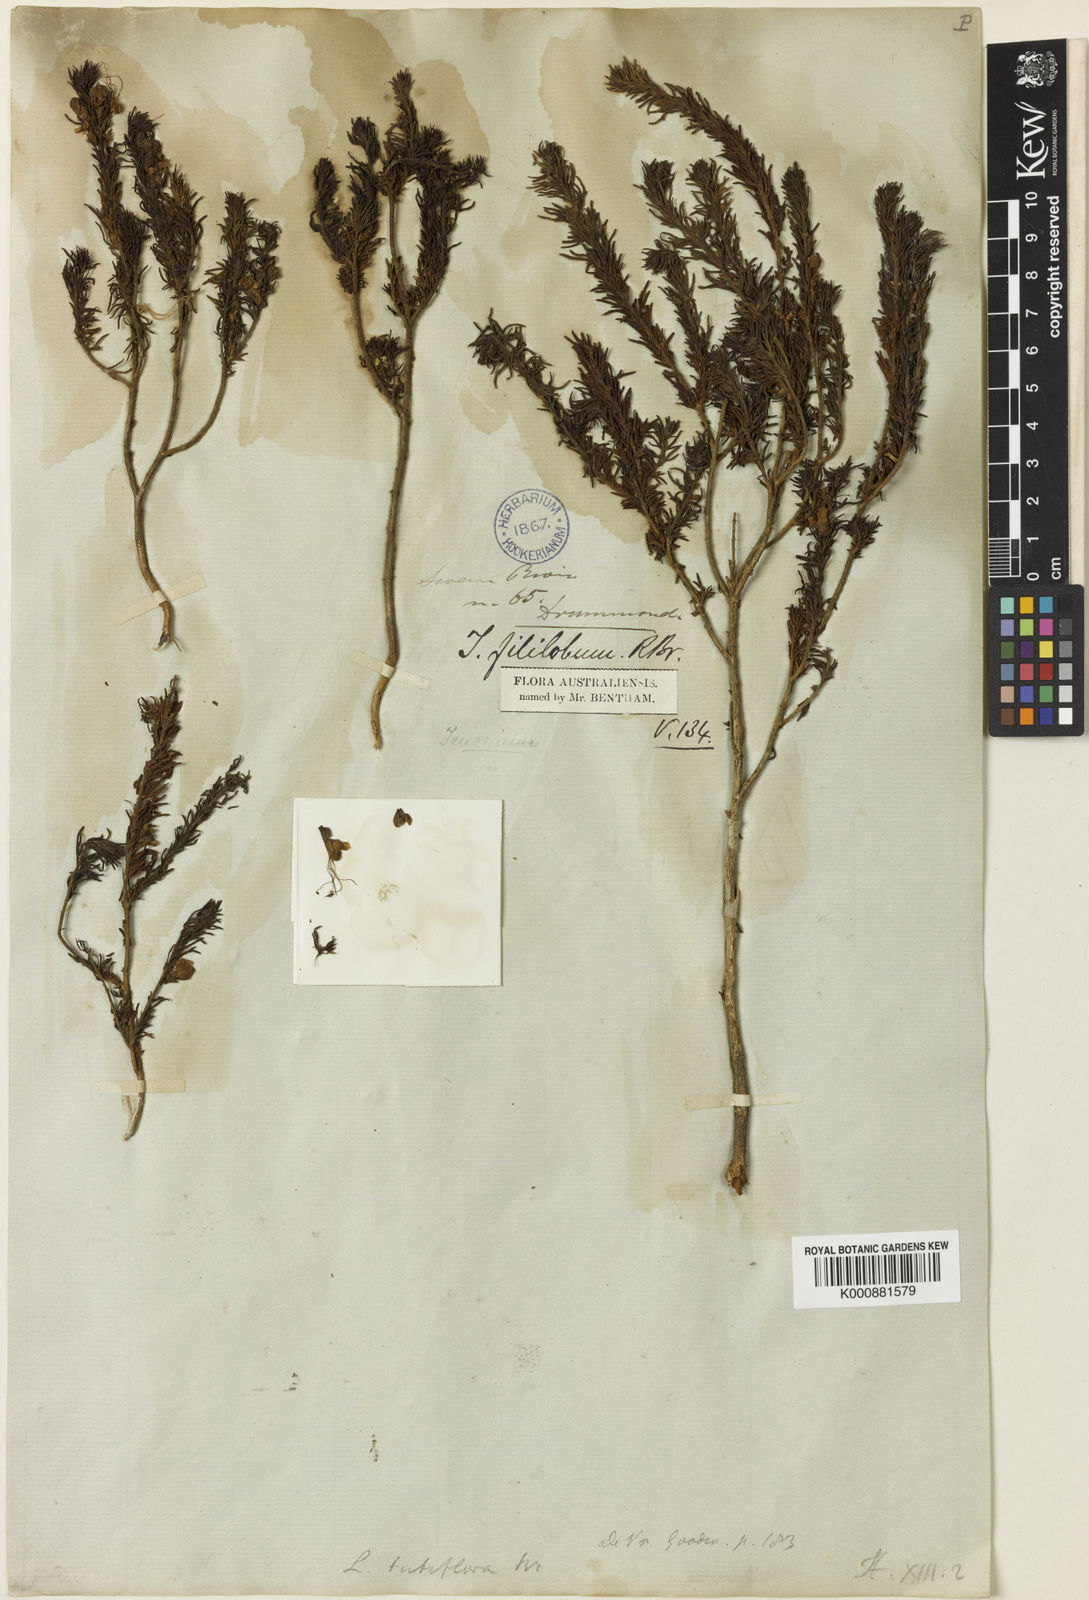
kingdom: Plantae
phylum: Tracheophyta
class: Magnoliopsida
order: Lamiales
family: Plantaginaceae
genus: Campylanthus
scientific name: Campylanthus salsoloides
